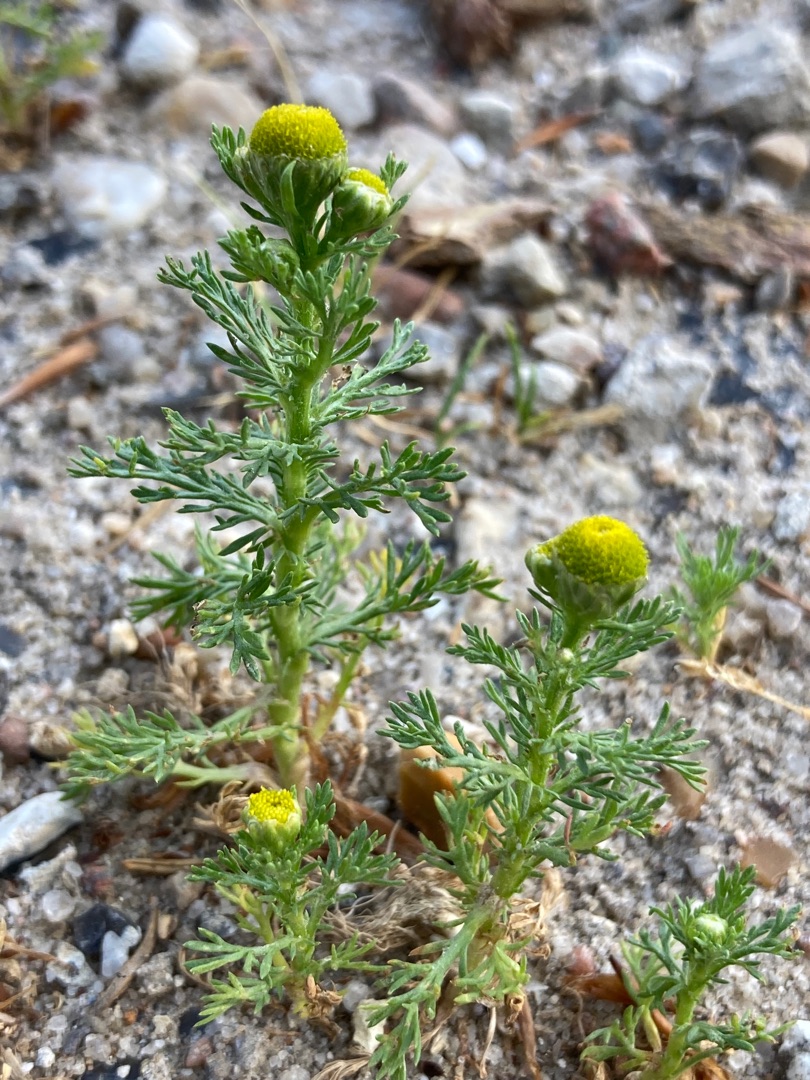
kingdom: Plantae
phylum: Tracheophyta
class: Magnoliopsida
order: Asterales
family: Asteraceae
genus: Matricaria
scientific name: Matricaria discoidea
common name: Skive-kamille
